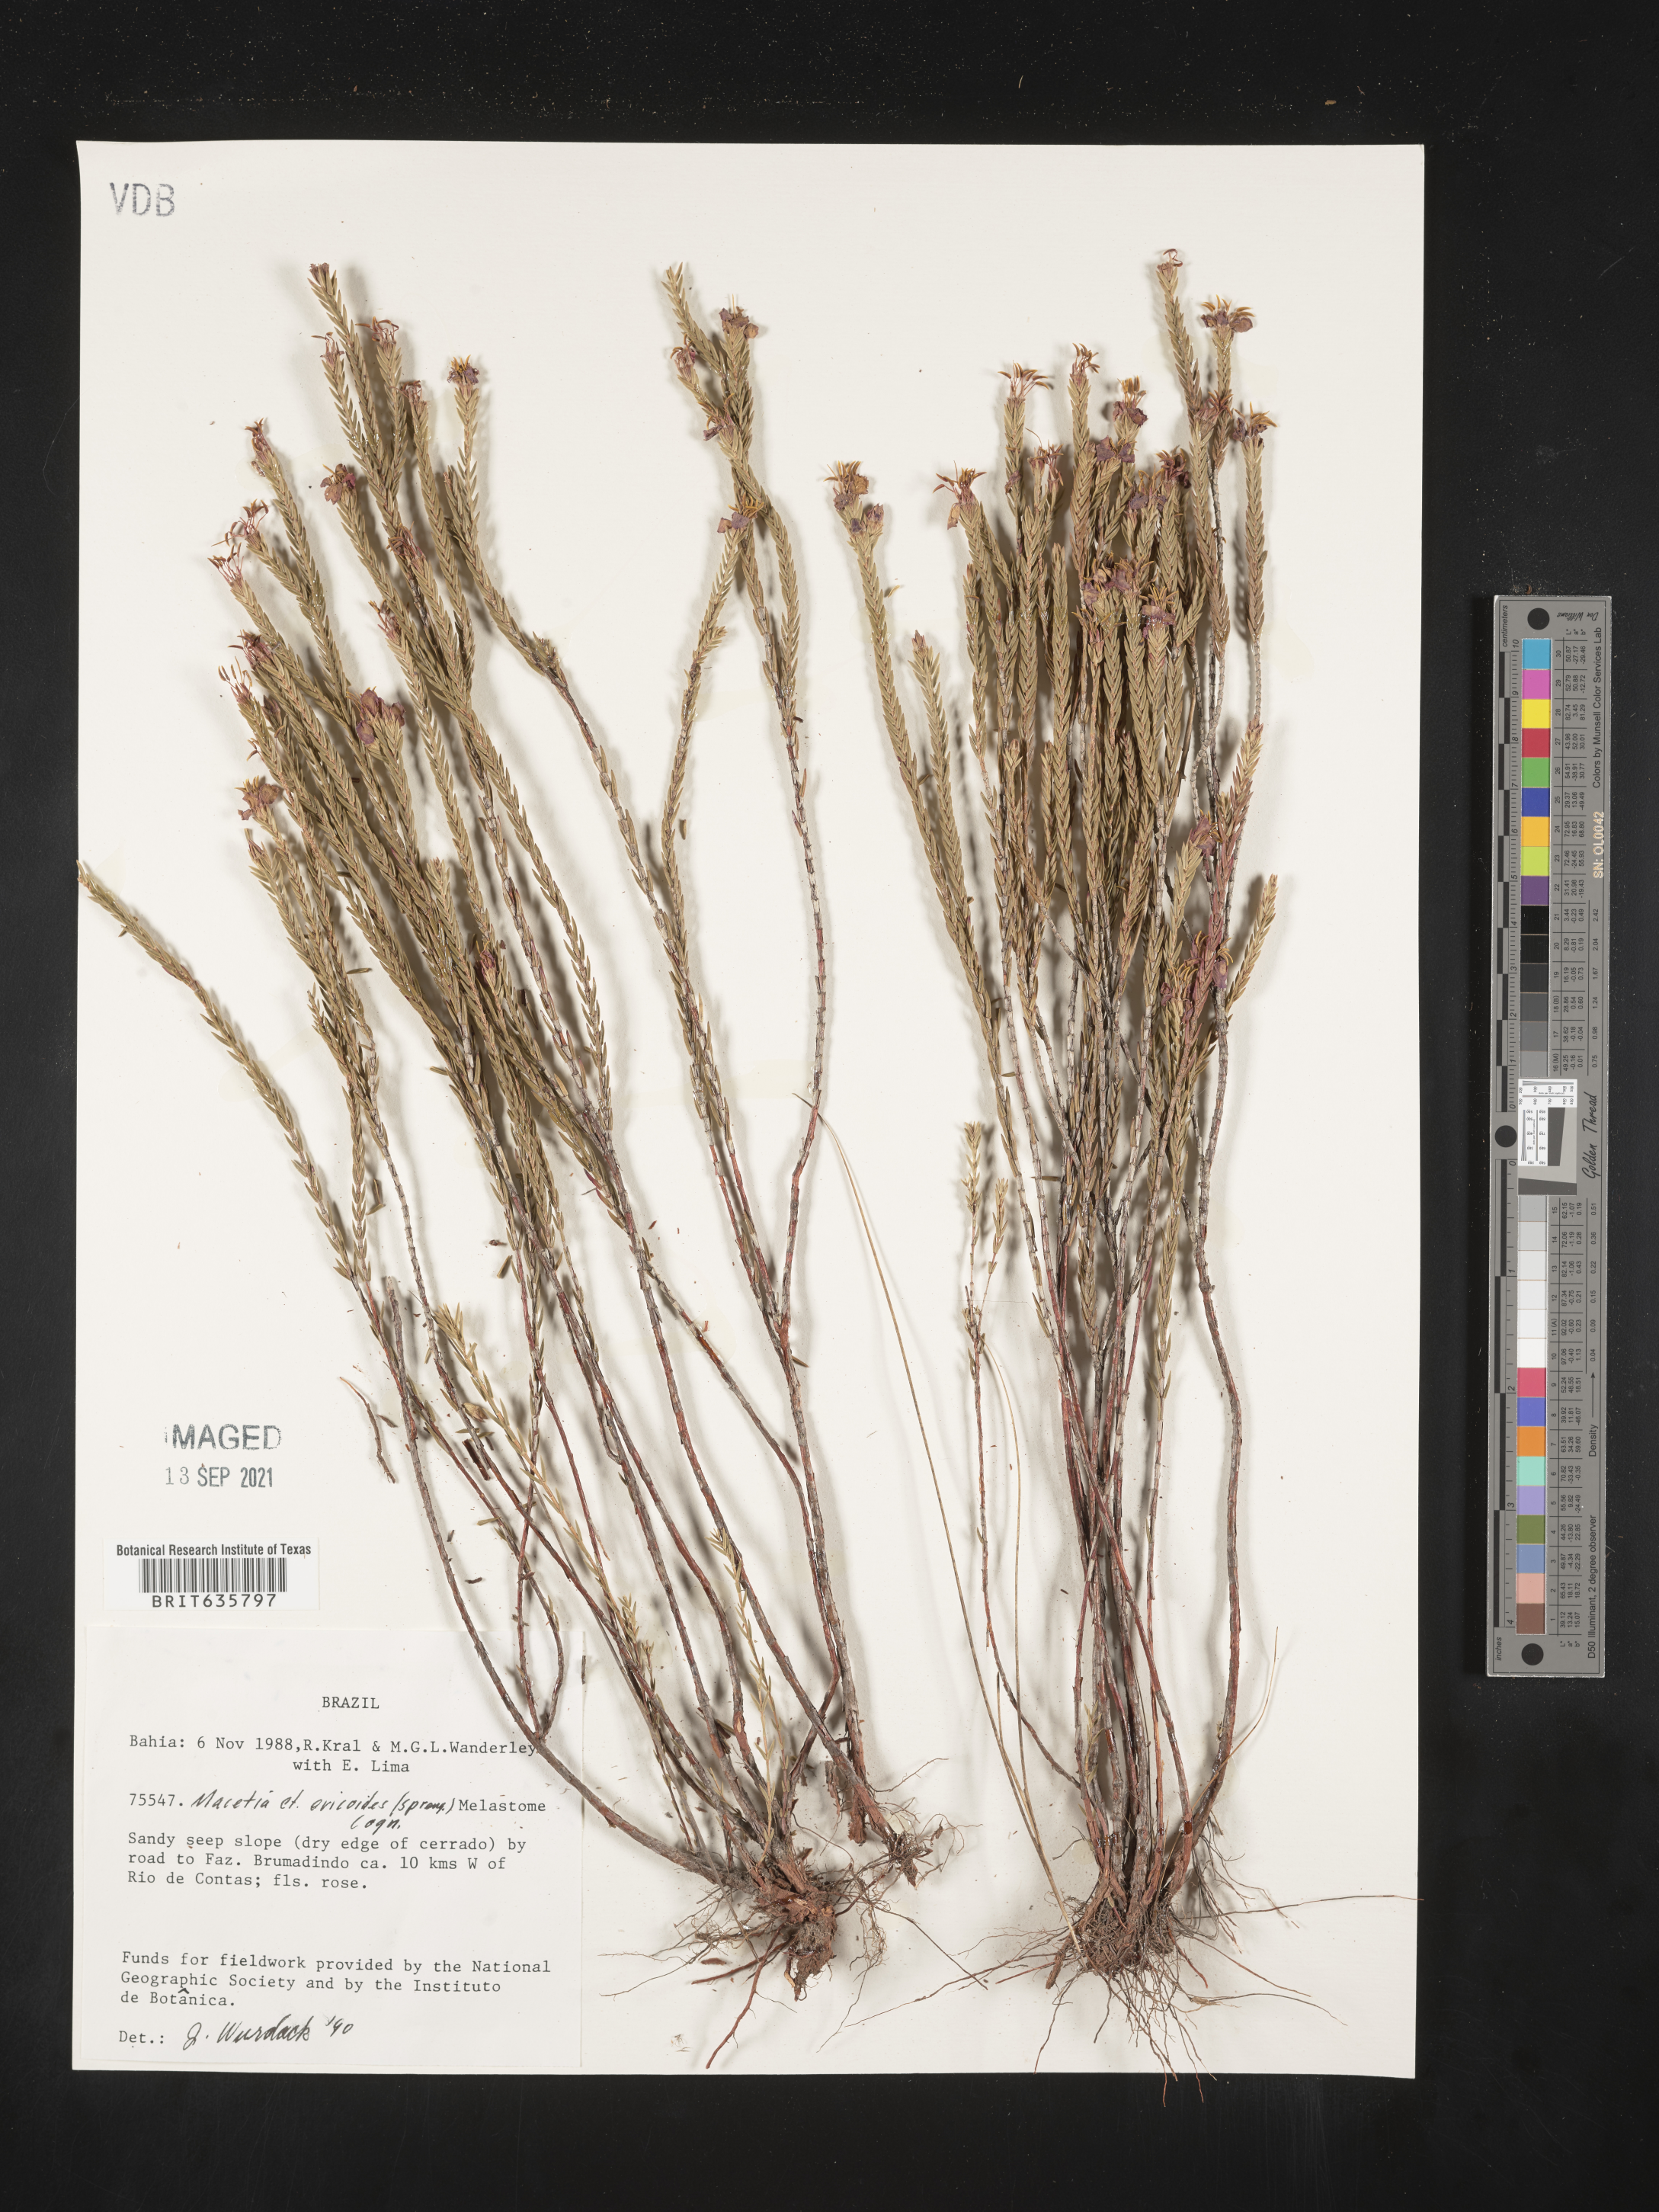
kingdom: Plantae
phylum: Tracheophyta
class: Magnoliopsida
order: Myrtales
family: Melastomataceae
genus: Marcetia
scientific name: Marcetia
